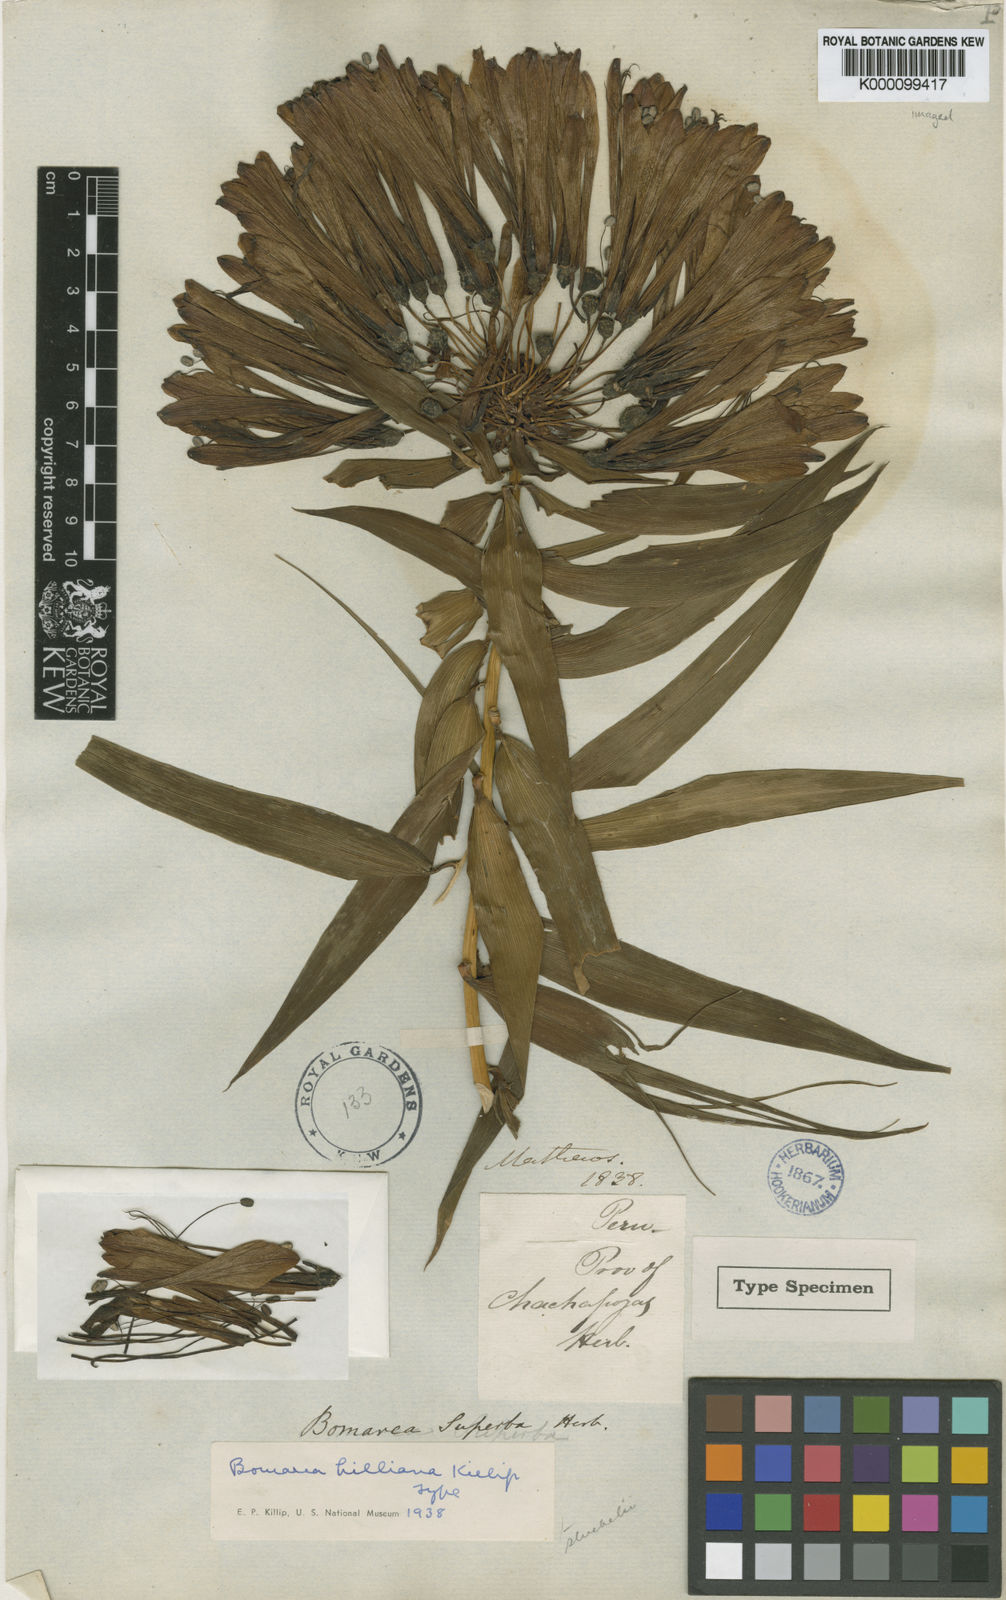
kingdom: Plantae
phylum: Tracheophyta
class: Liliopsida
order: Liliales
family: Alstroemeriaceae
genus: Bomarea
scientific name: Bomarea
